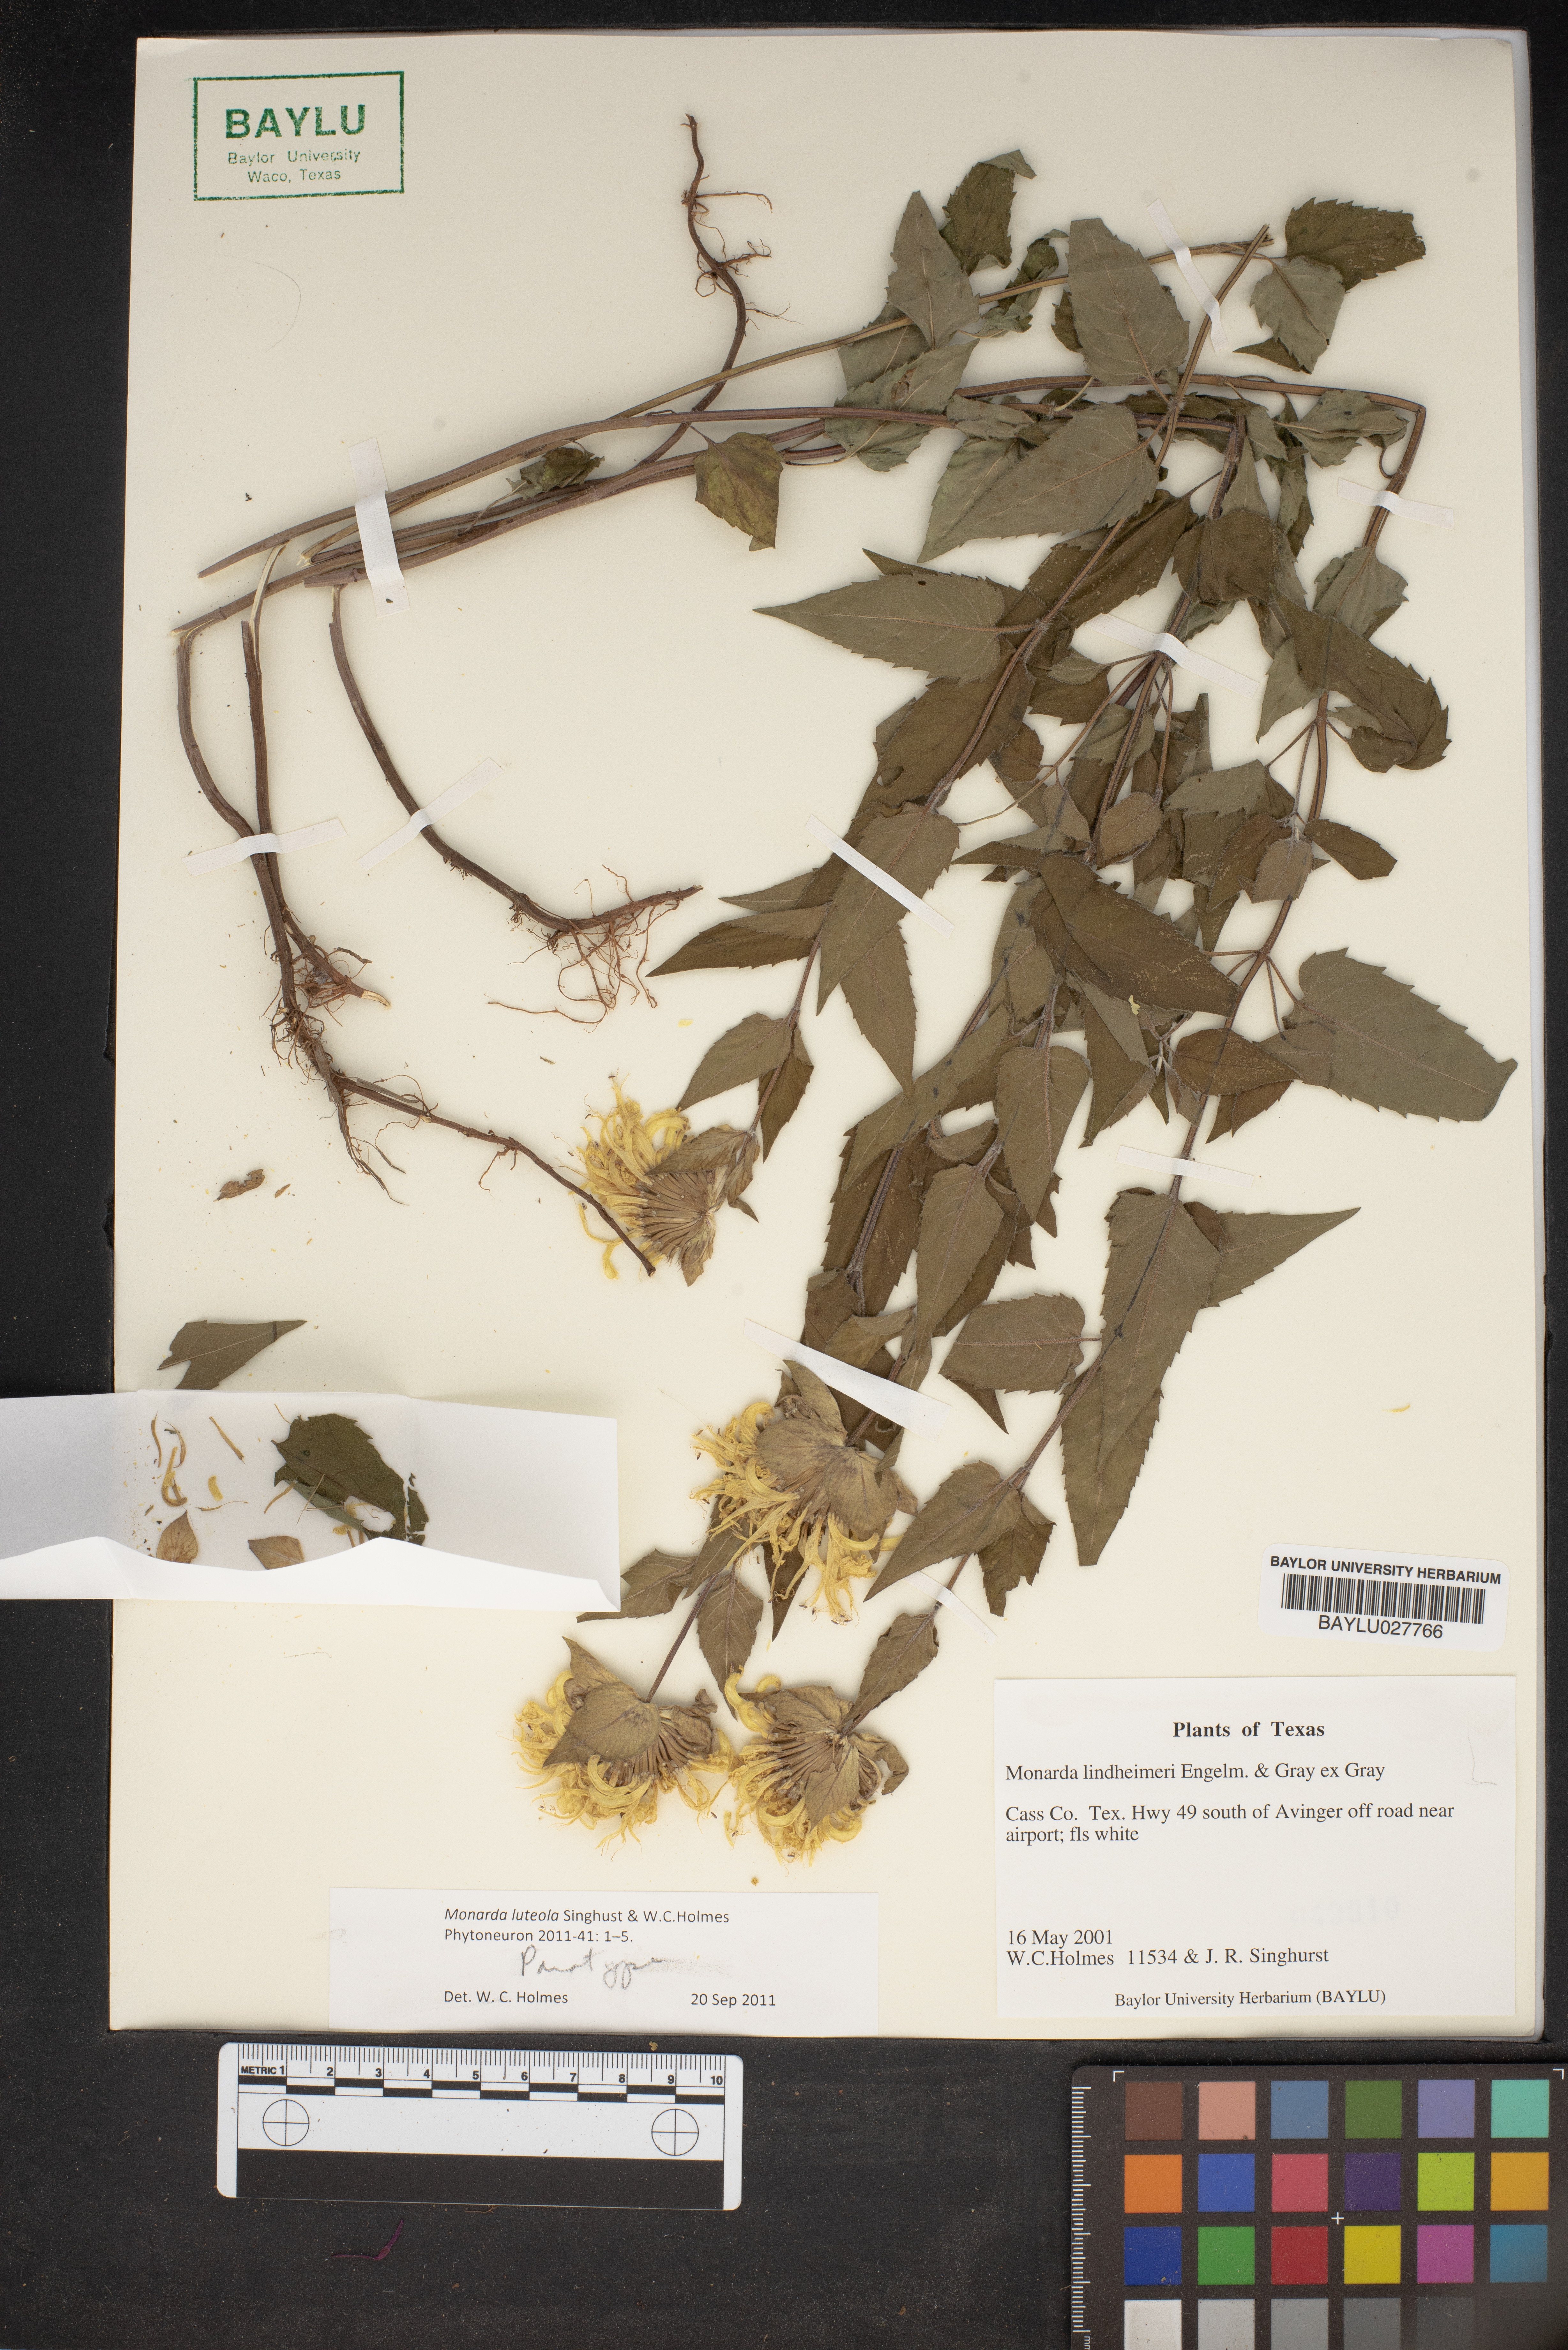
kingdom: Plantae
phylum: Tracheophyta
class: Magnoliopsida
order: Lamiales
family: Lamiaceae
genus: Monarda
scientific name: Monarda luteola
